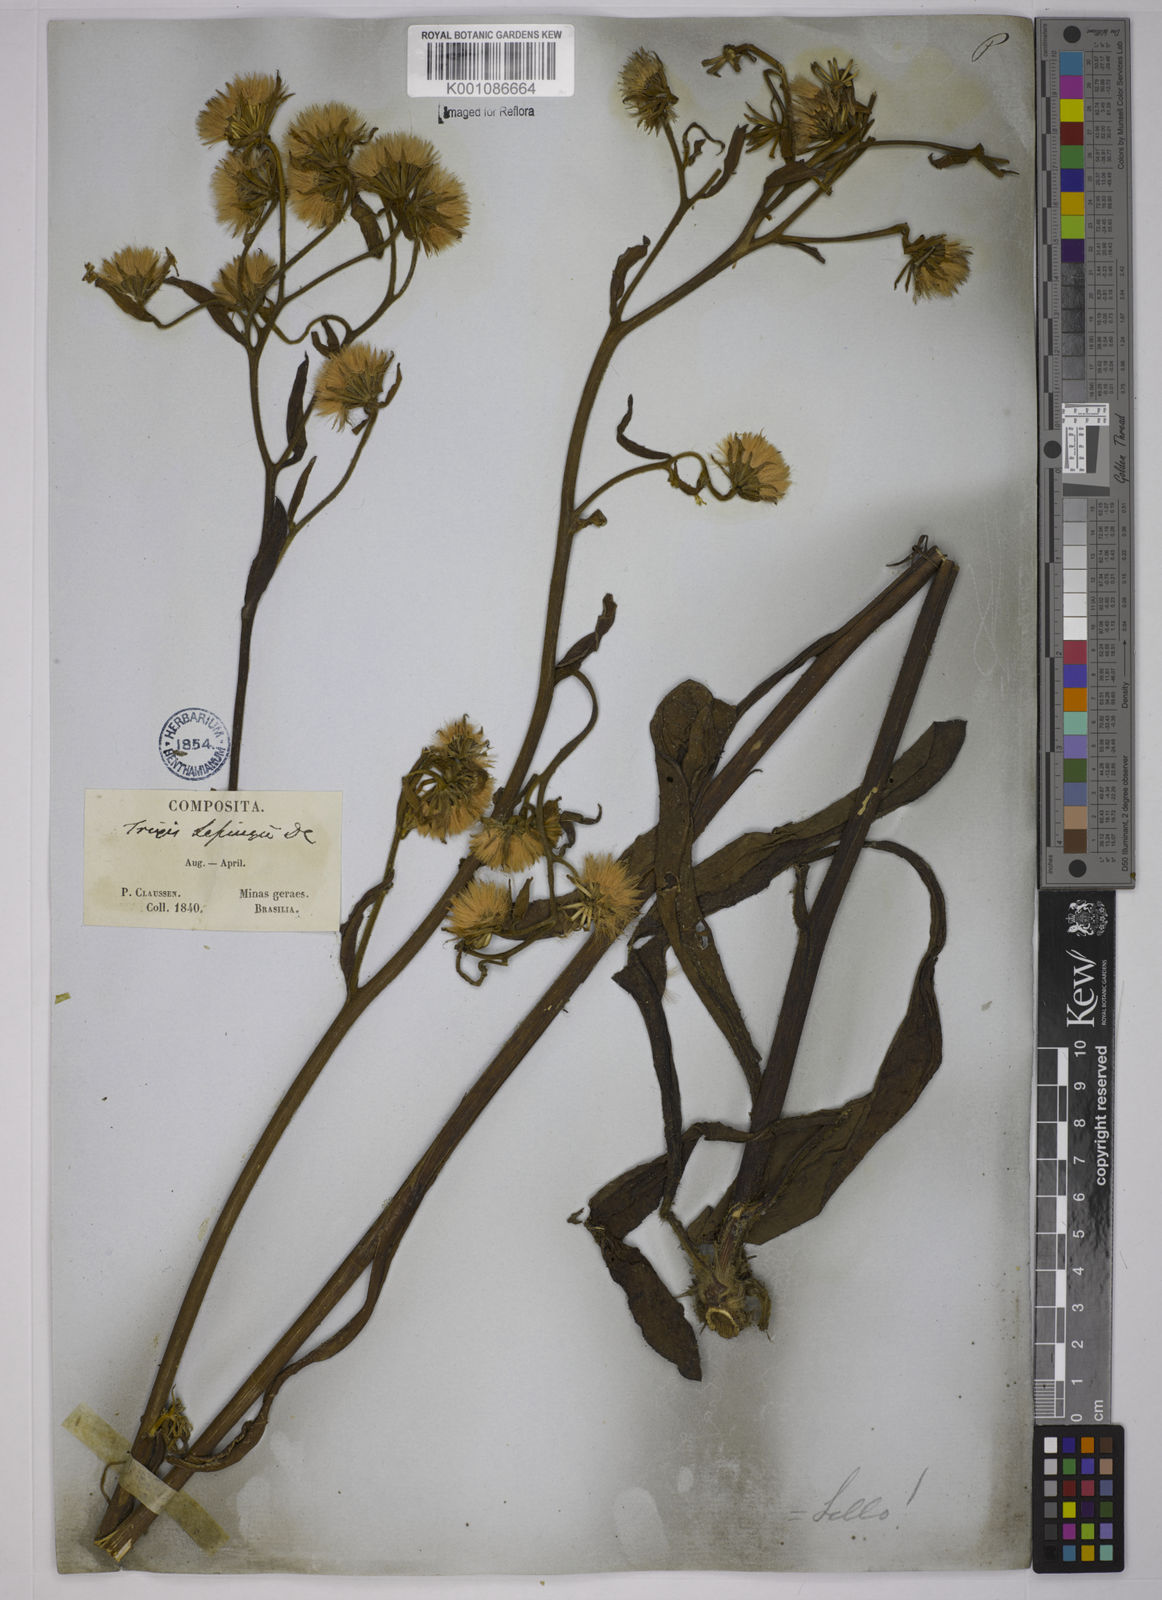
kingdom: Plantae
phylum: Tracheophyta
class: Magnoliopsida
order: Asterales
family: Asteraceae
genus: Trixis
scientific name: Trixis lessingii
